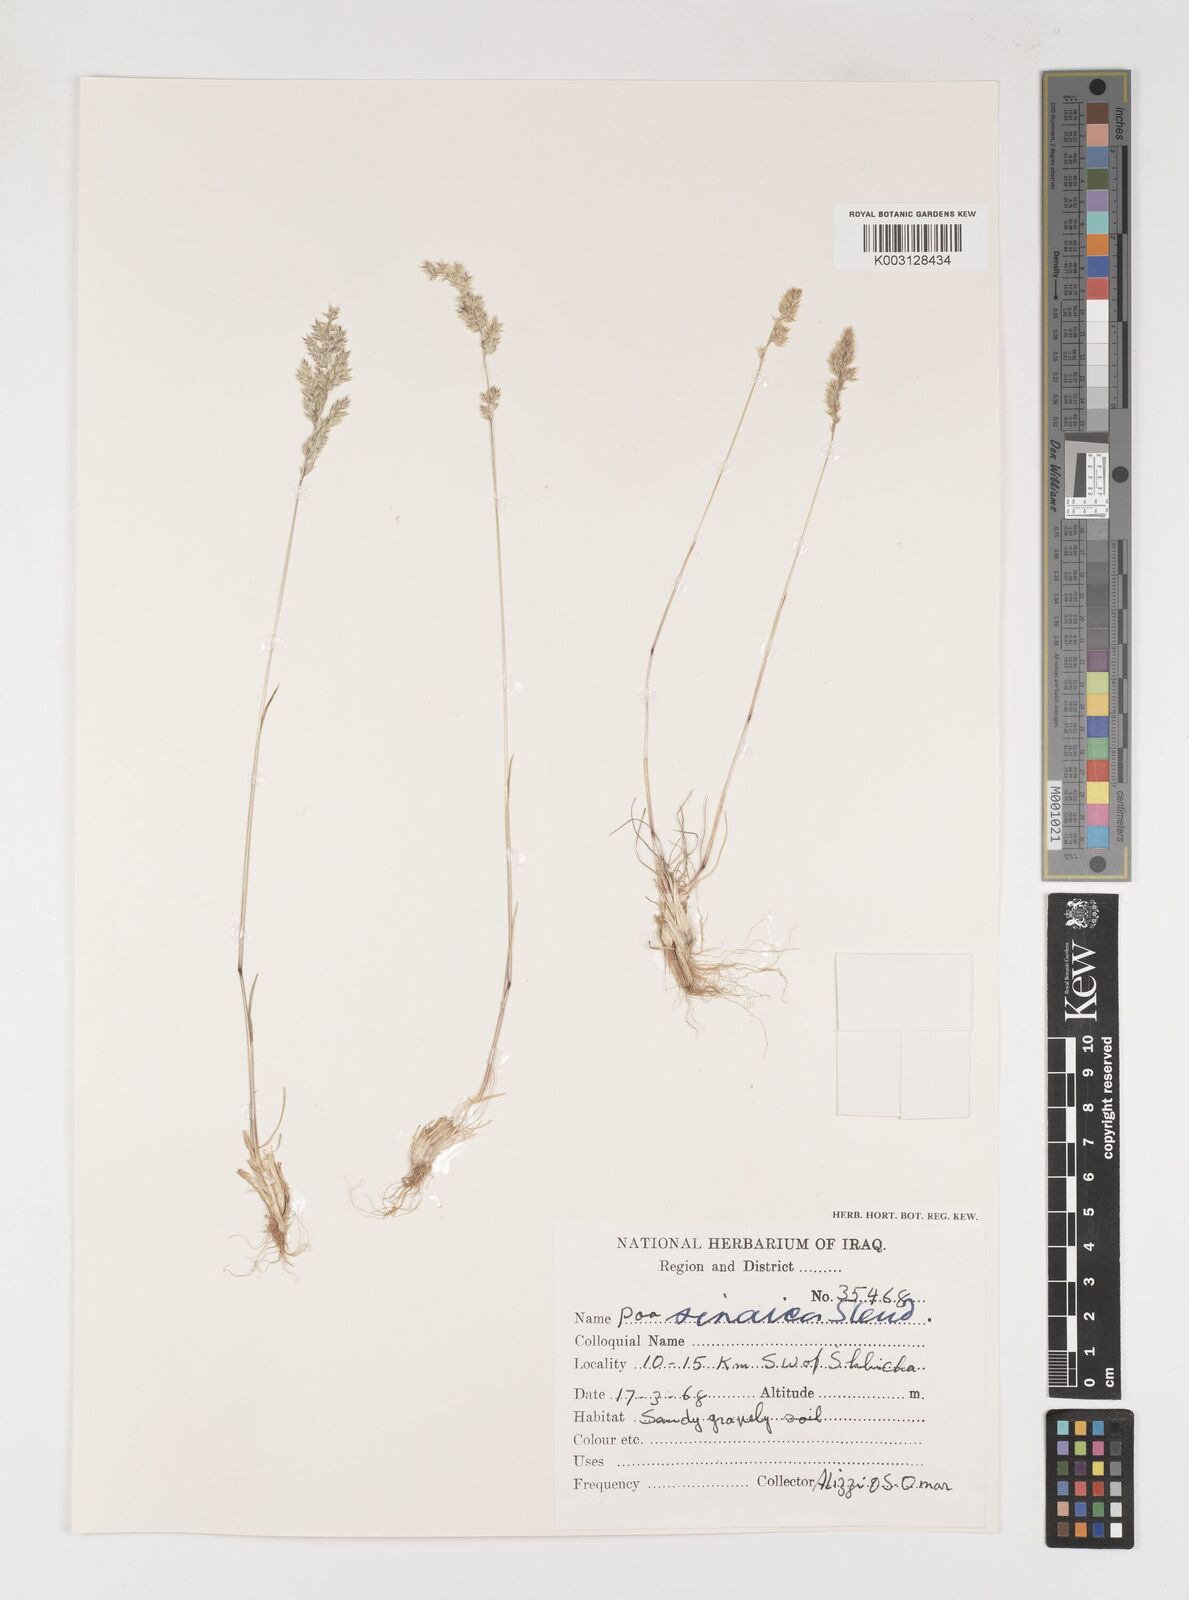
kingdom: Plantae
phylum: Tracheophyta
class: Liliopsida
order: Poales
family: Poaceae
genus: Poa
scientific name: Poa sinaica
